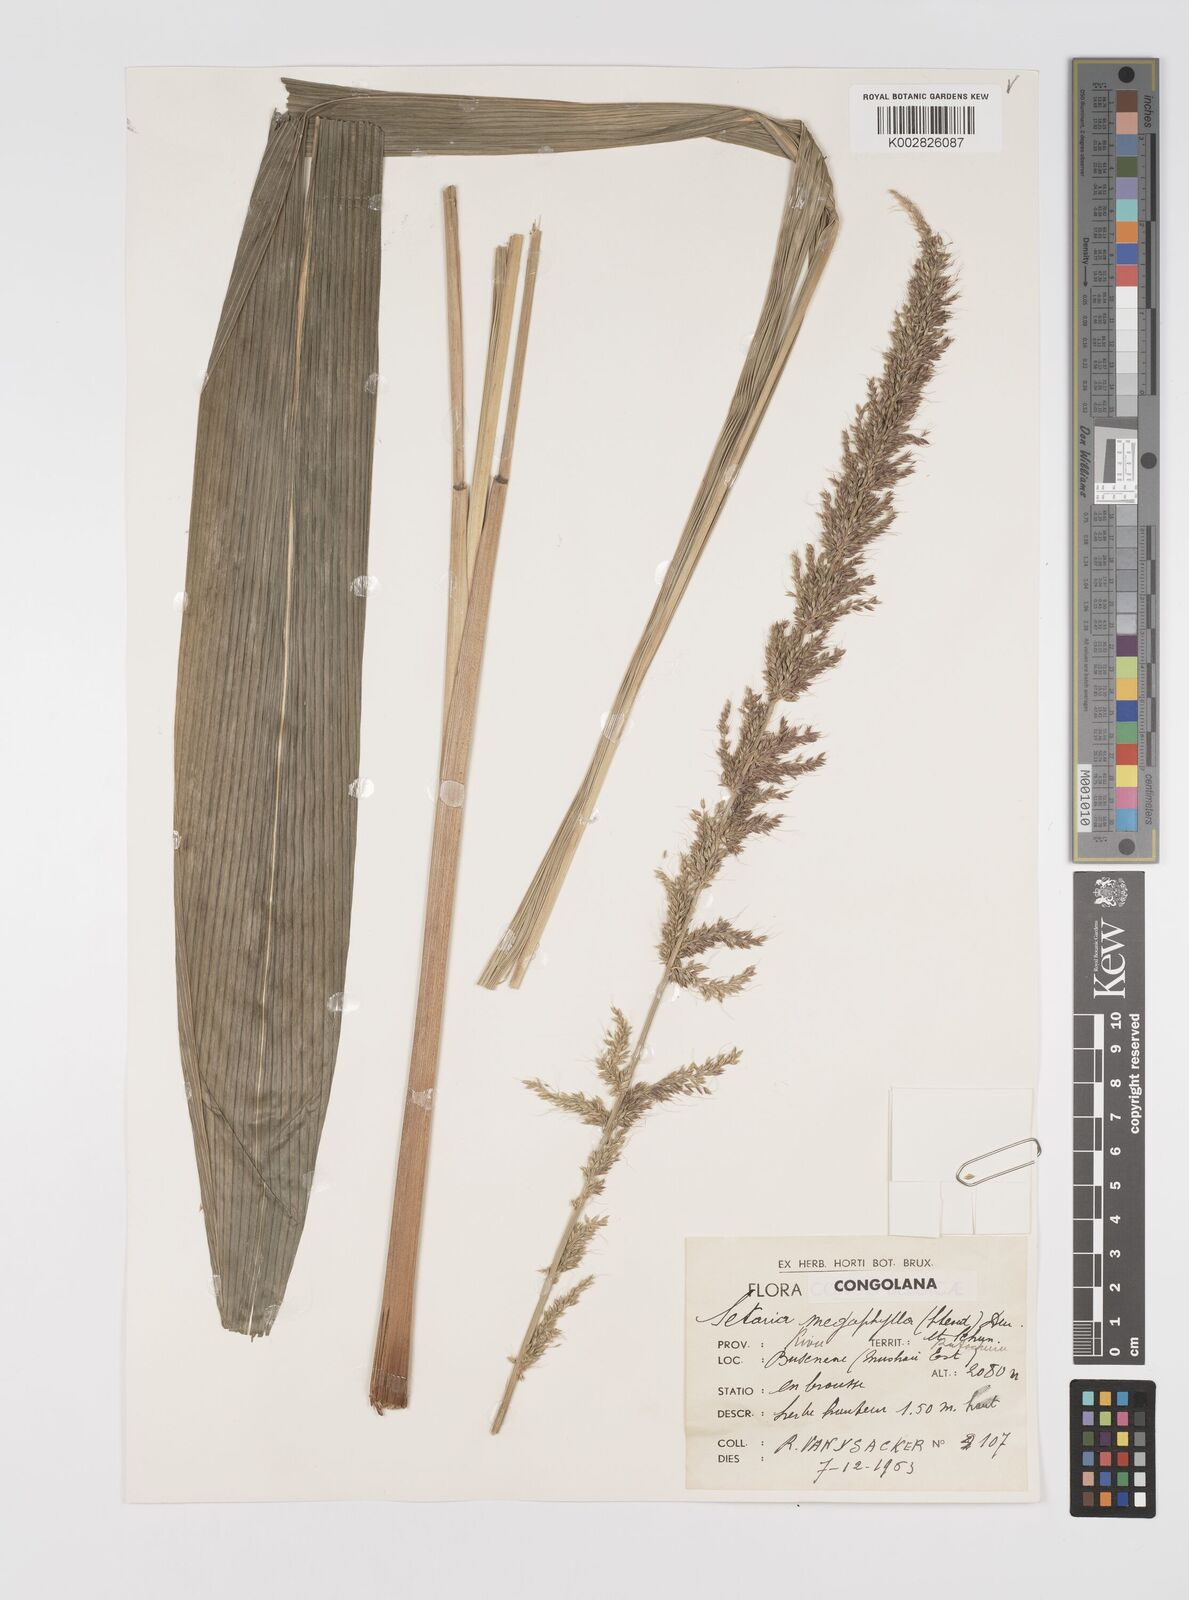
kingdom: Plantae
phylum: Tracheophyta
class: Liliopsida
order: Poales
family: Poaceae
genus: Setaria
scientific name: Setaria poiretiana
